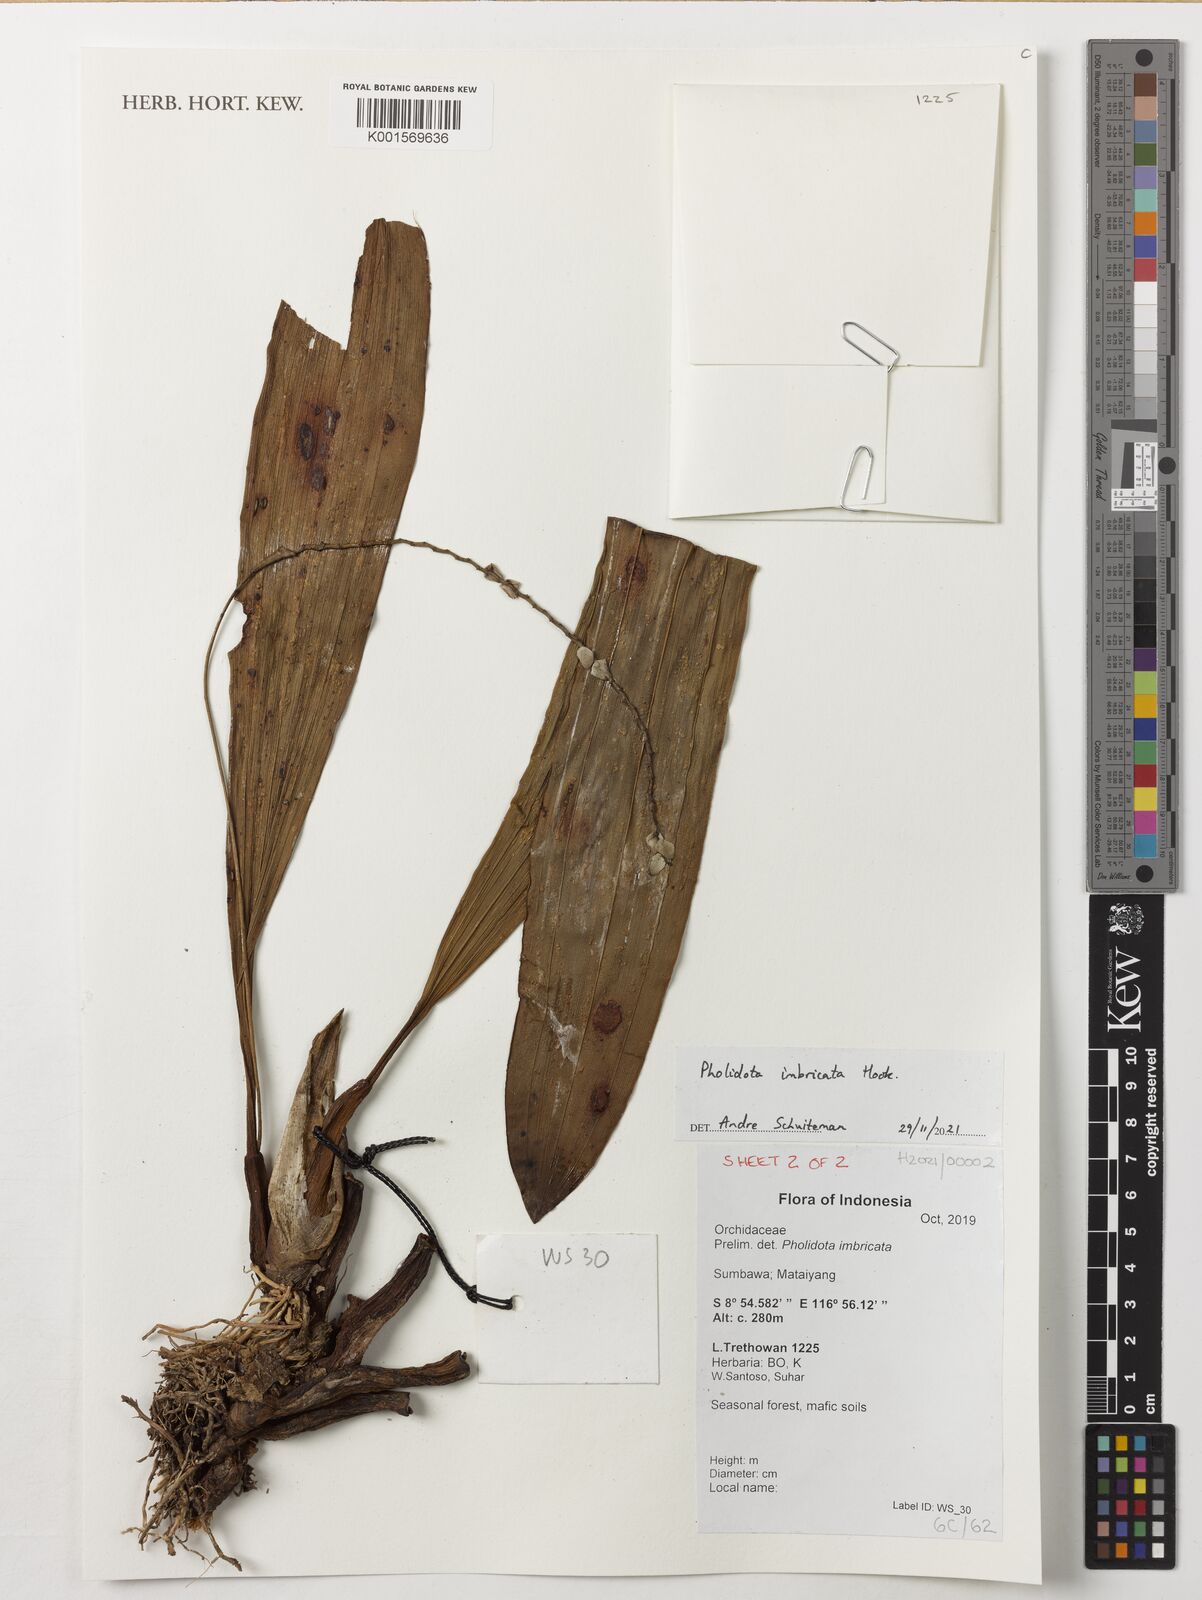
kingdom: Plantae
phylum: Tracheophyta
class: Liliopsida
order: Asparagales
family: Orchidaceae
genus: Coelogyne
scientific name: Coelogyne imbricata
